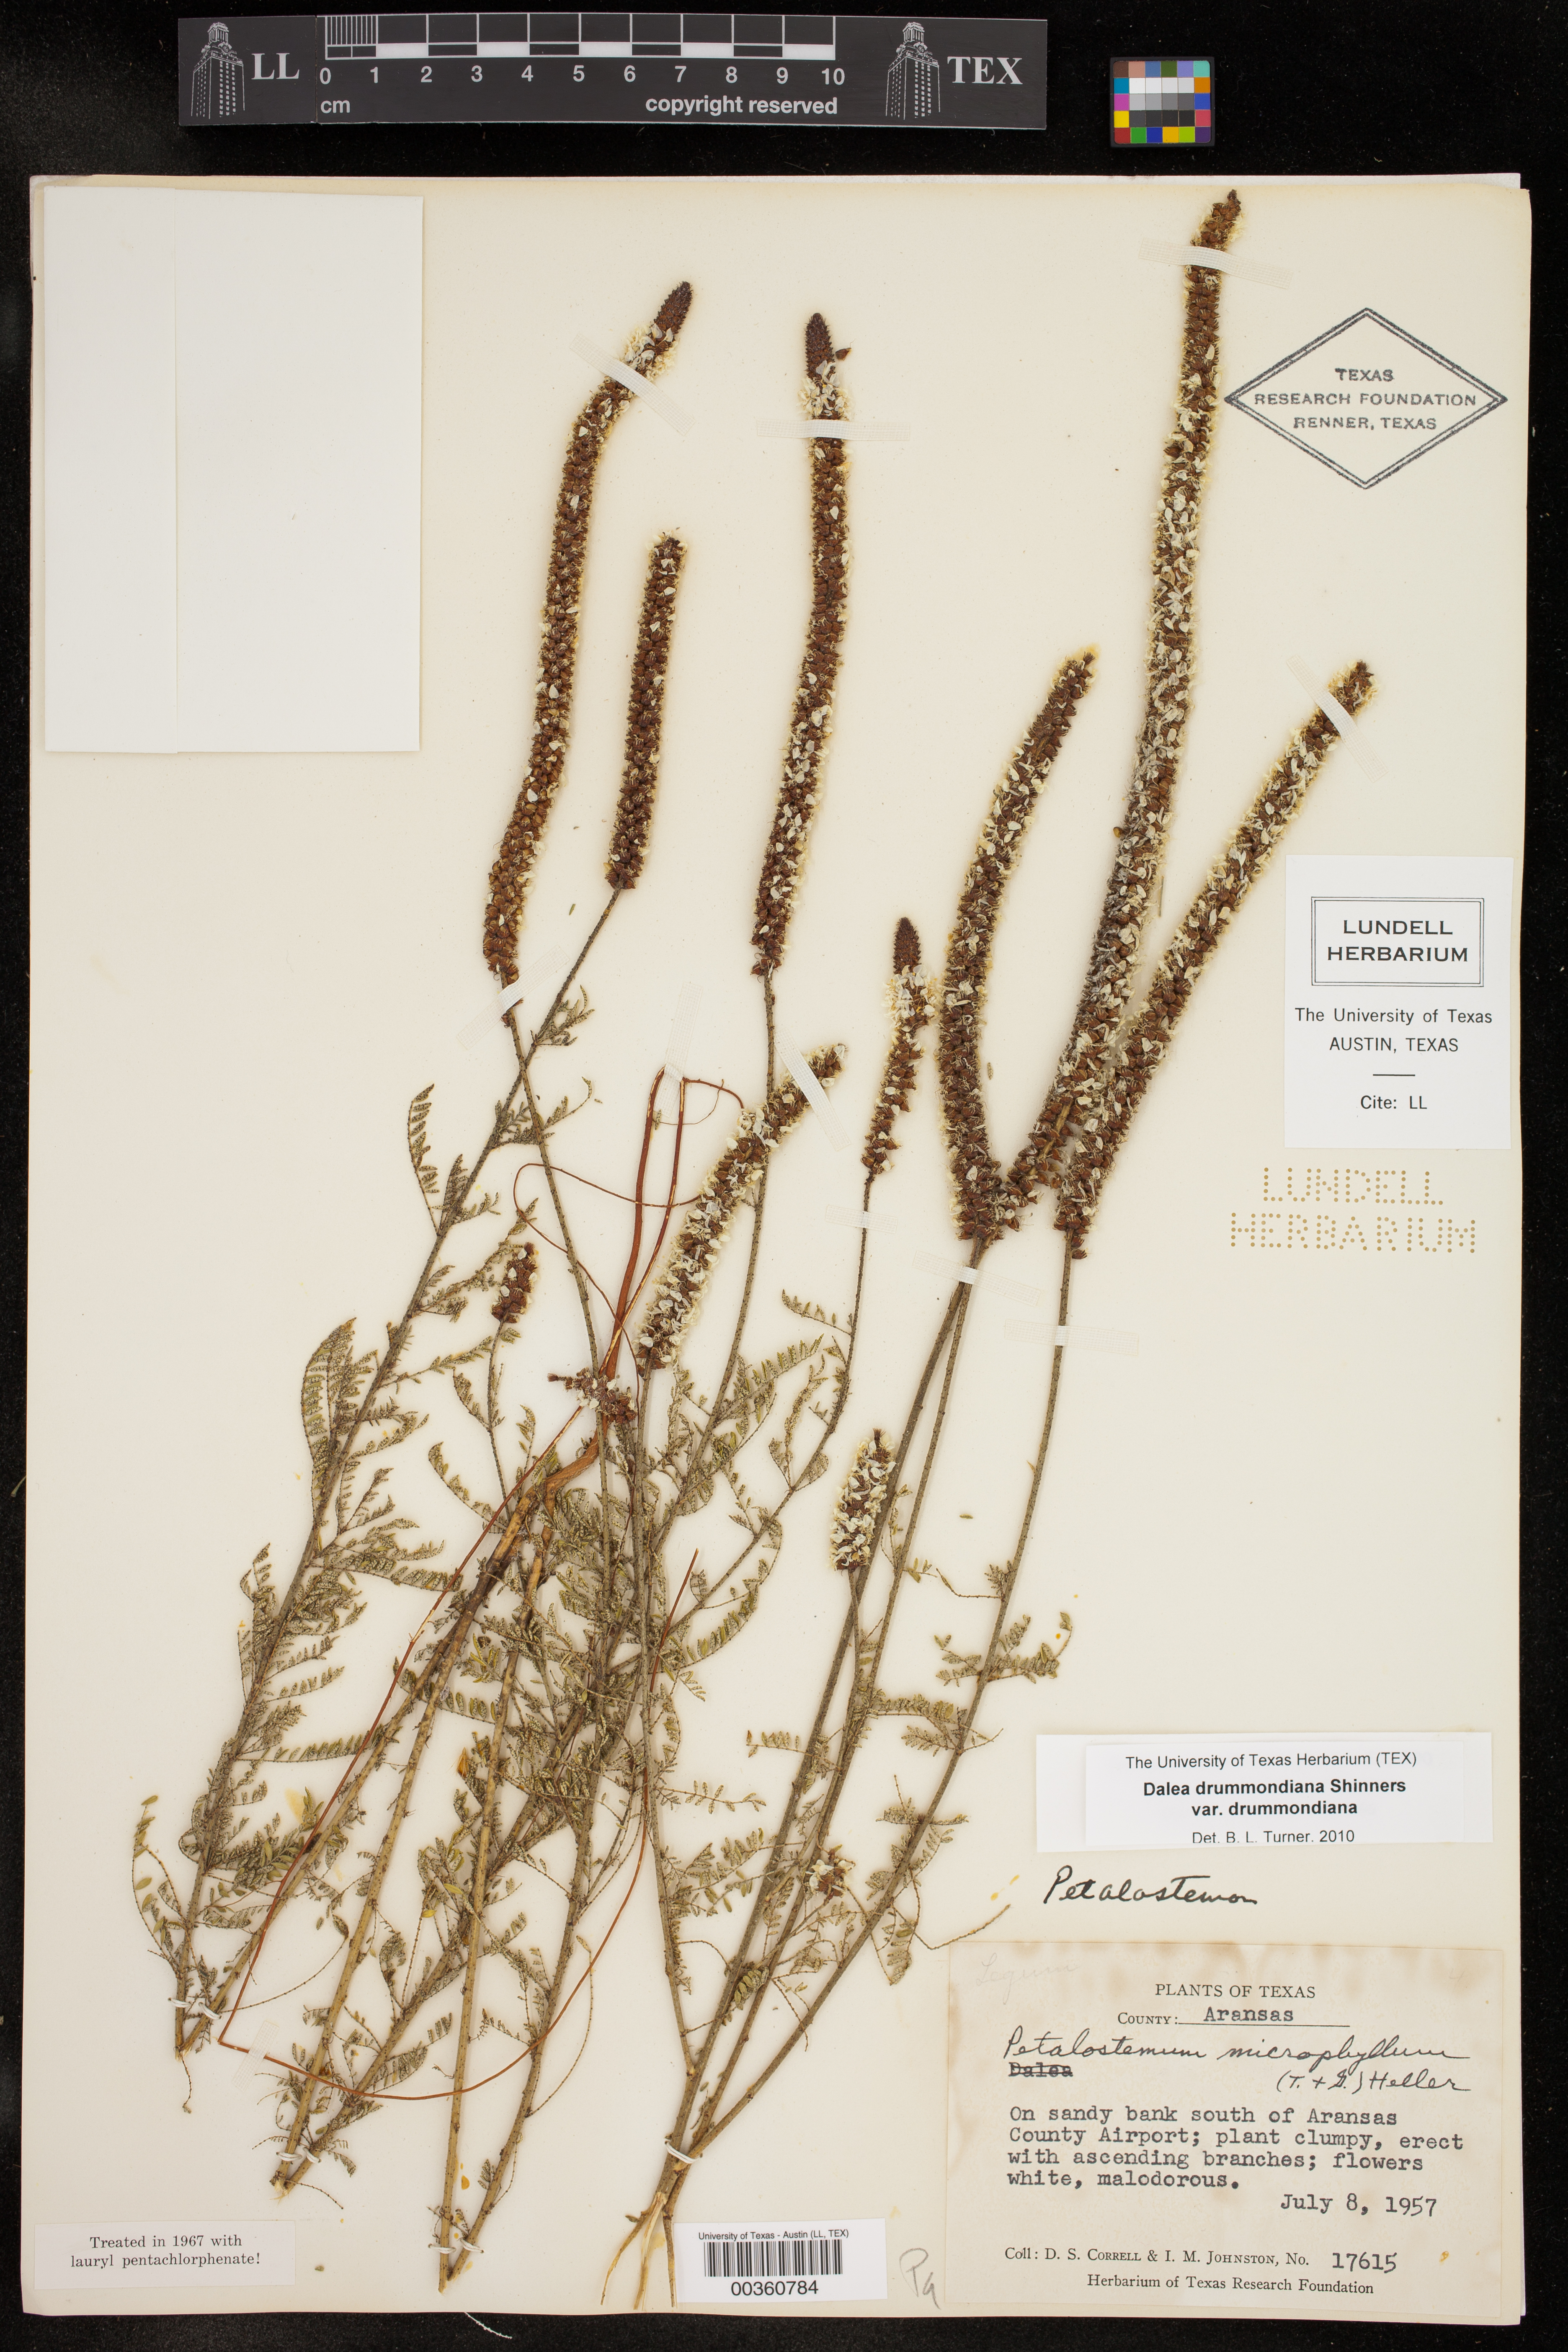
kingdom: Plantae
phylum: Tracheophyta
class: Magnoliopsida
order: Fabales
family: Fabaceae
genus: Dalea
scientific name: Dalea drummondiana
